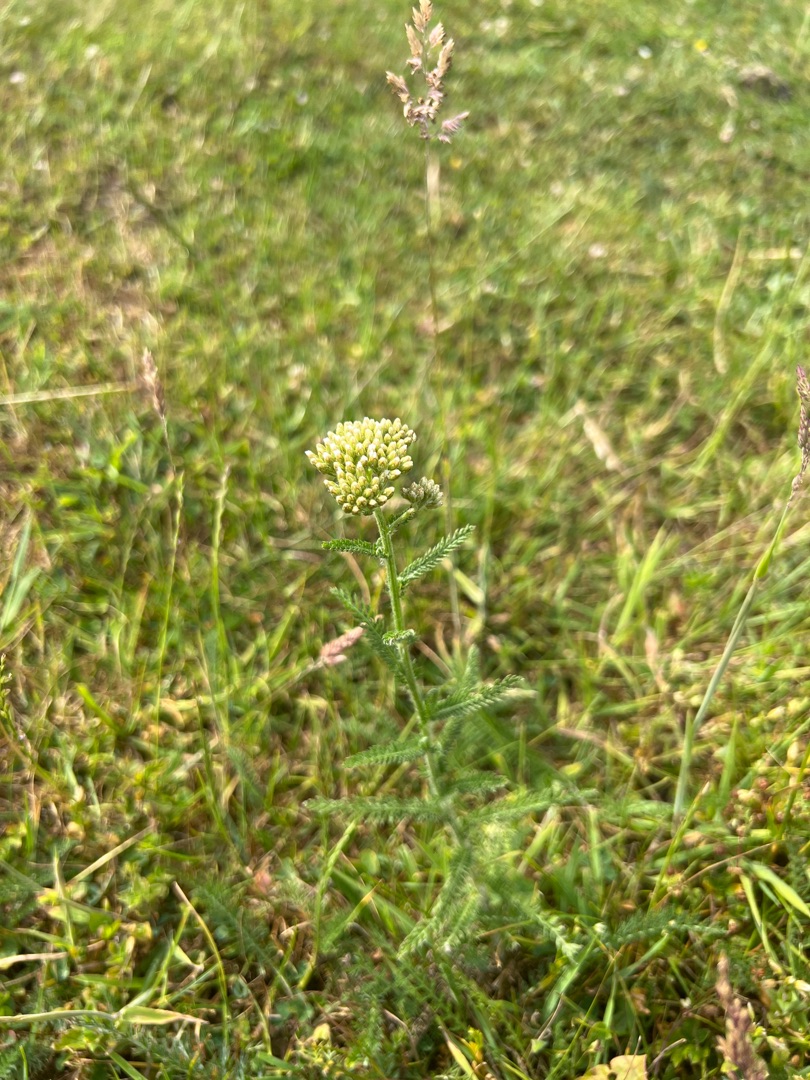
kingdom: Plantae
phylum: Tracheophyta
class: Magnoliopsida
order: Asterales
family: Asteraceae
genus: Achillea
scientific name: Achillea millefolium
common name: Almindelig røllike
